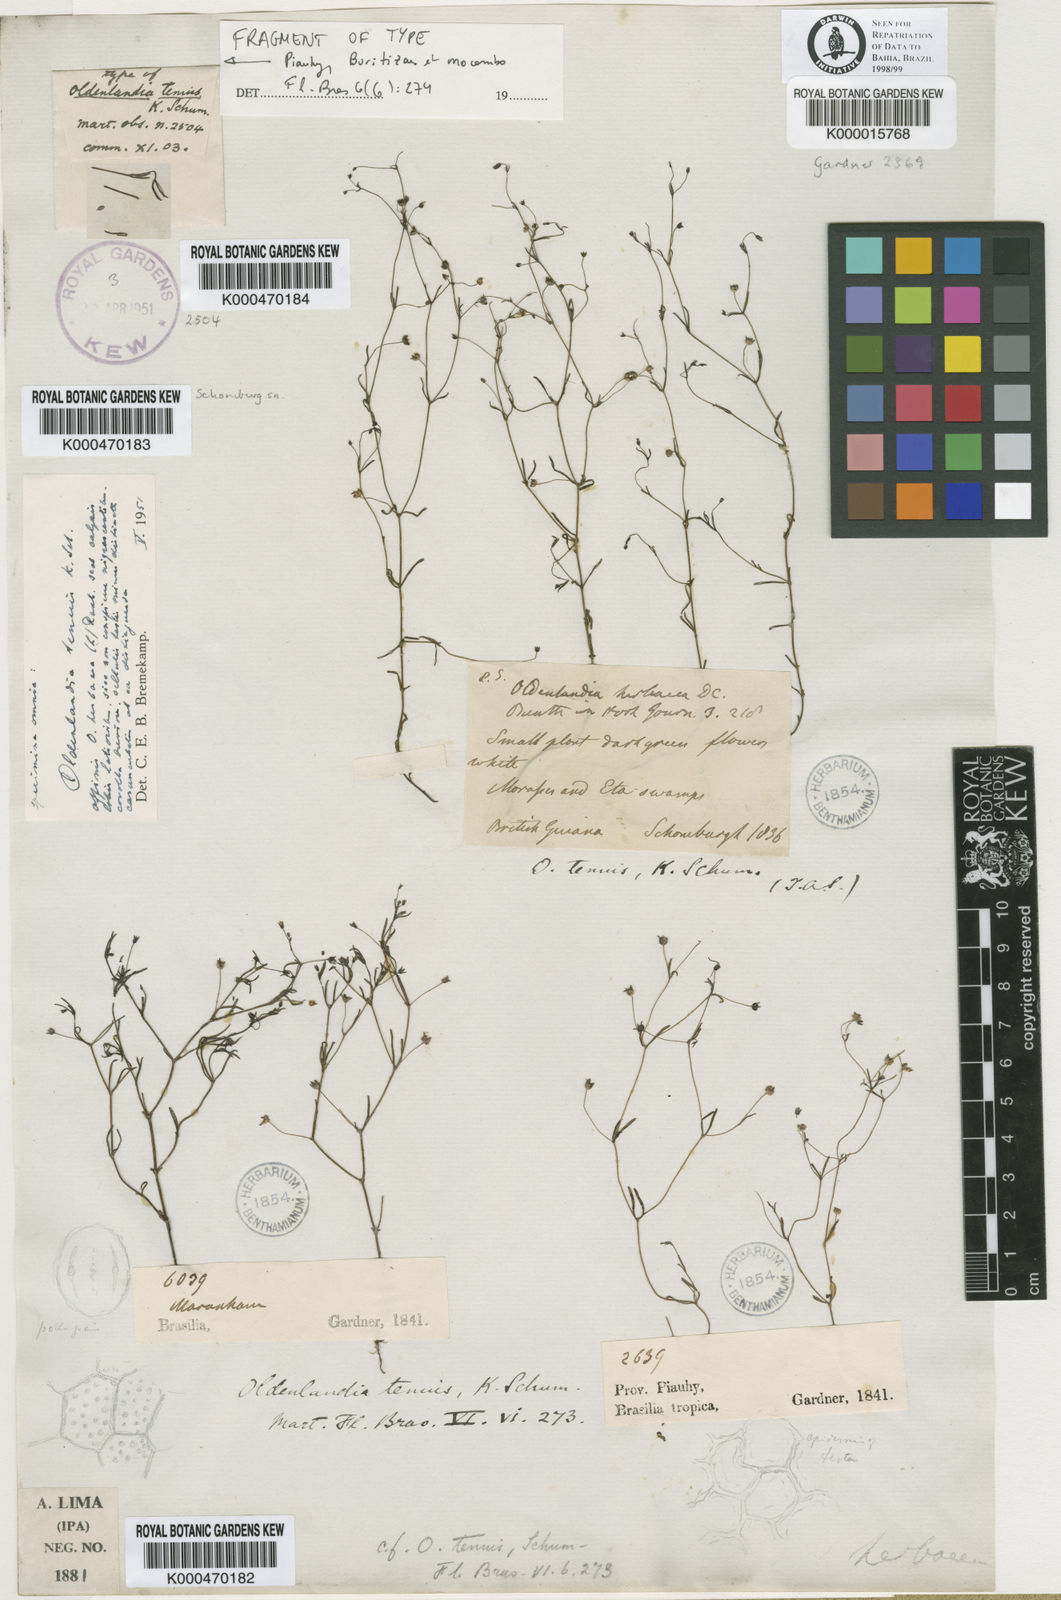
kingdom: Plantae
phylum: Tracheophyta
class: Magnoliopsida
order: Gentianales
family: Rubiaceae
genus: Oldenlandia
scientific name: Oldenlandia tenuis
